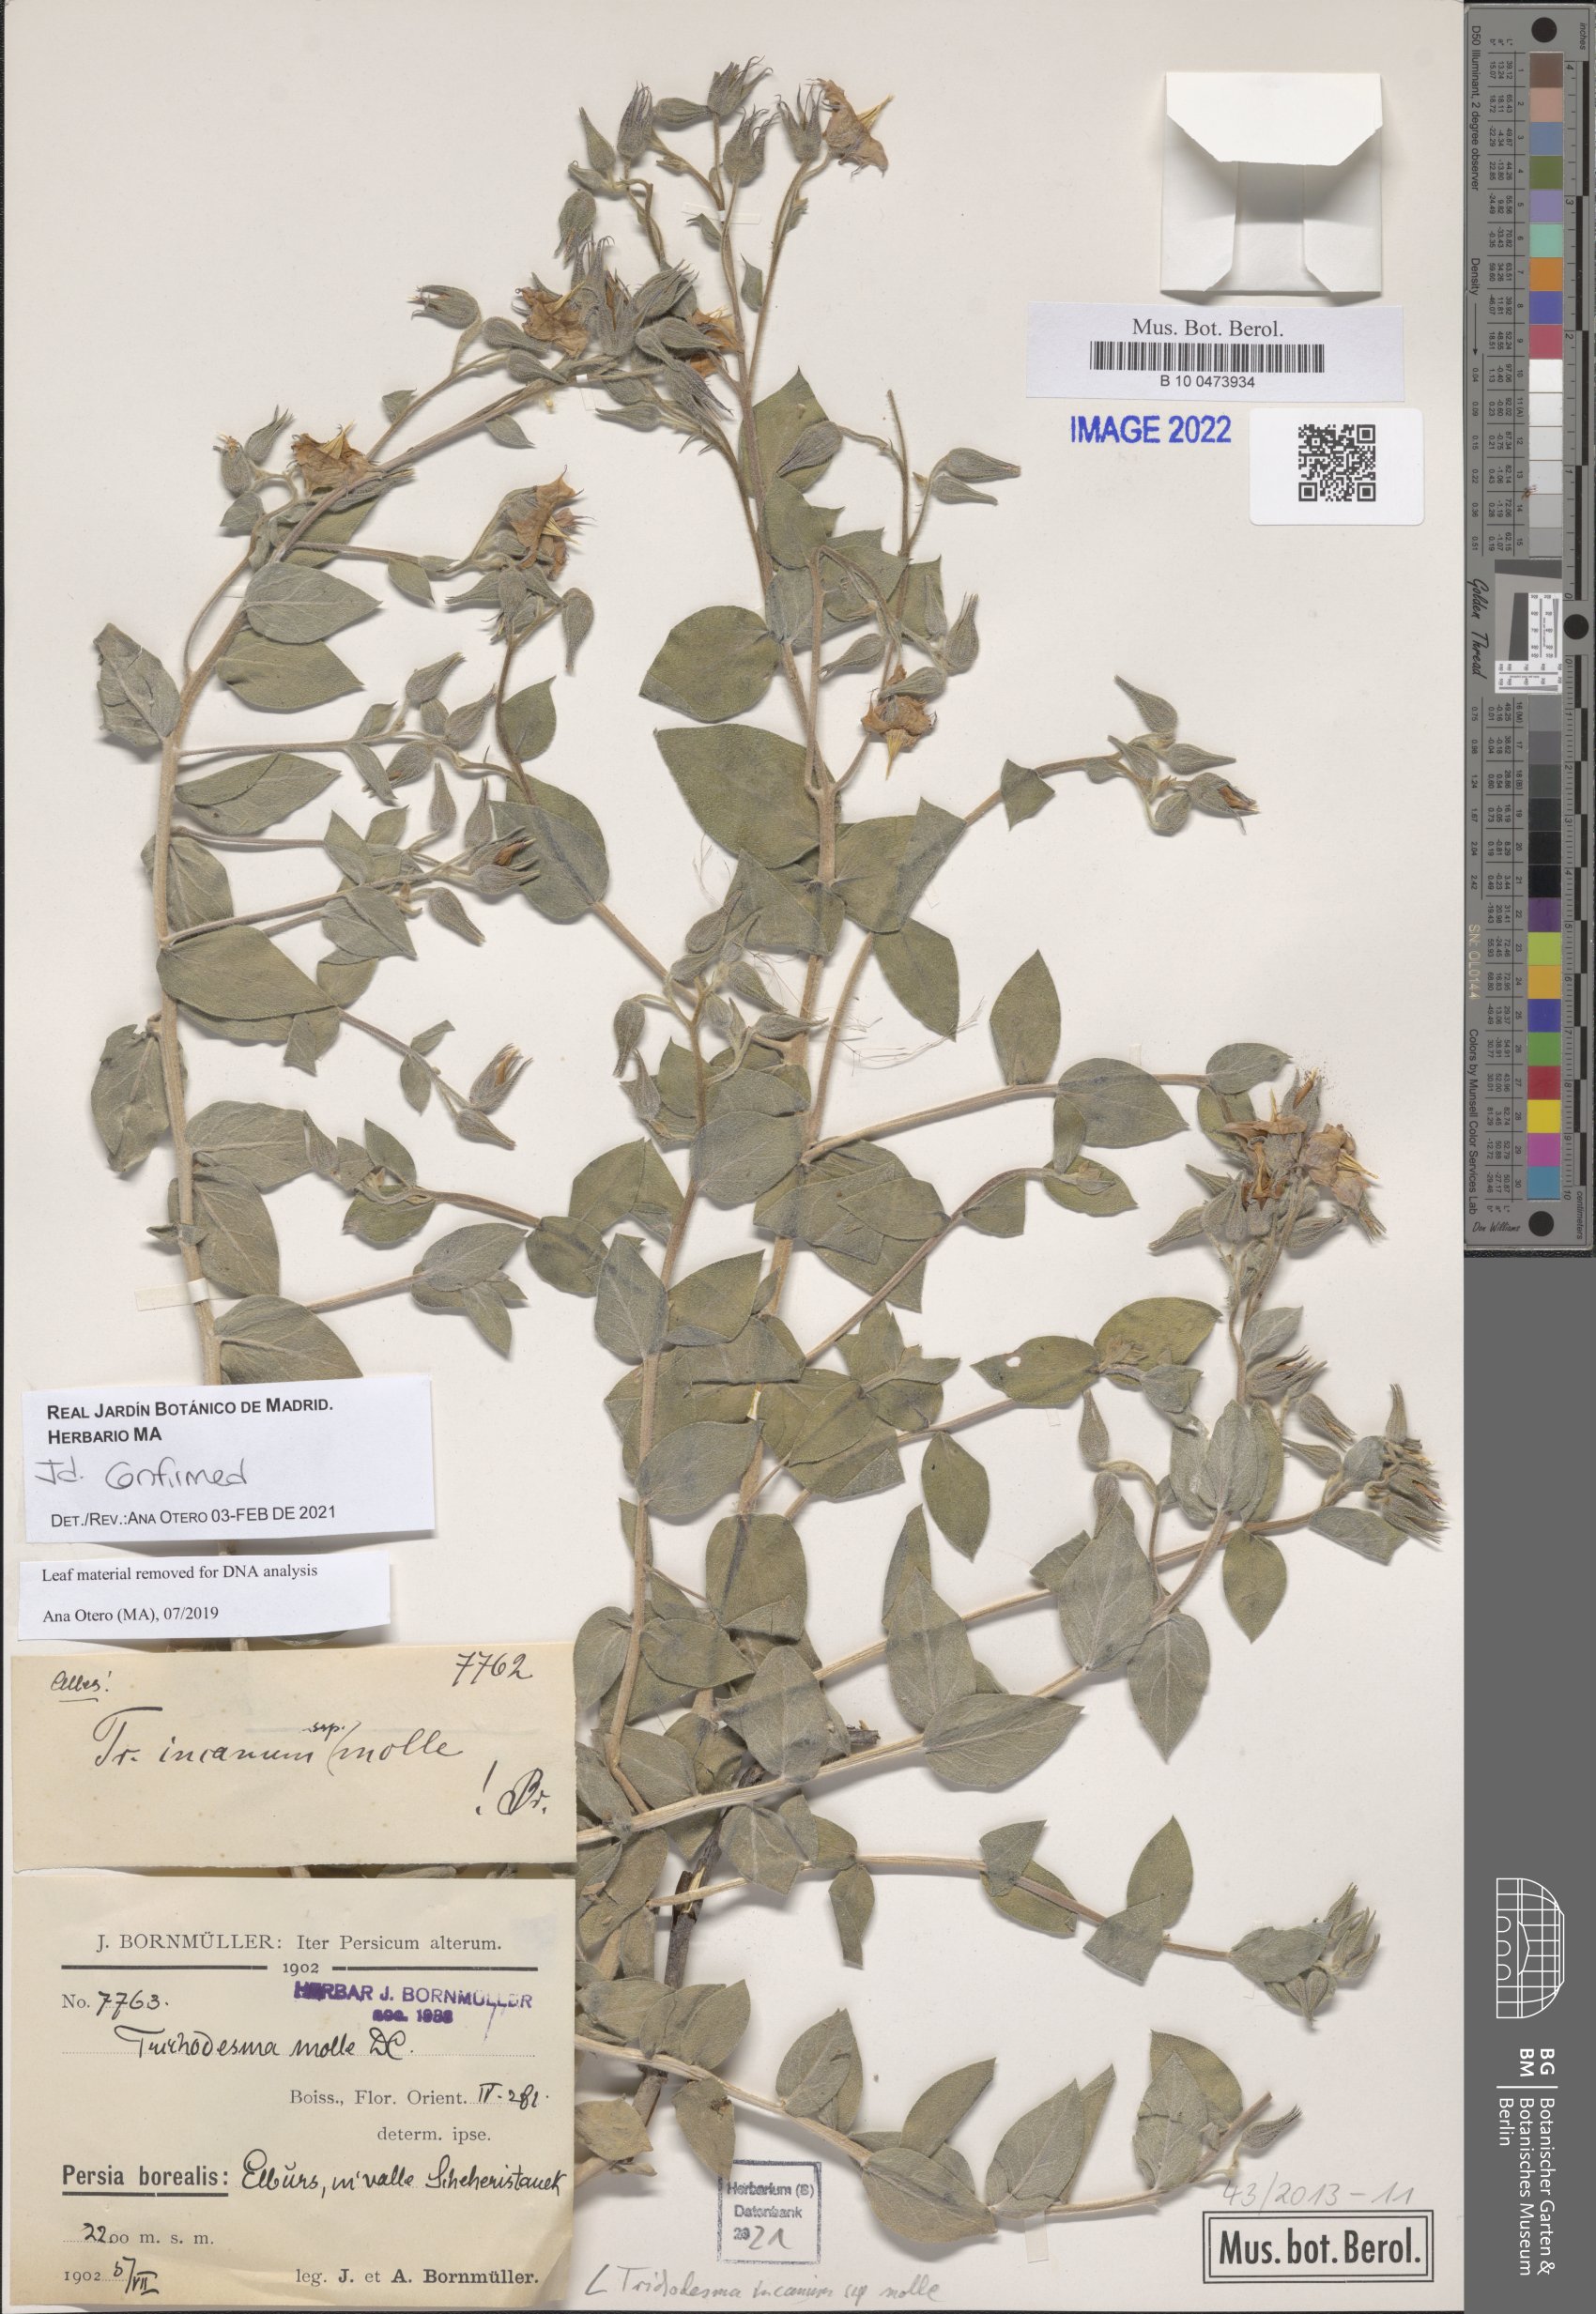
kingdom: Plantae
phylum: Tracheophyta
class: Magnoliopsida
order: Boraginales
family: Boraginaceae
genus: Trichodesma
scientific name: Trichodesma incanum
